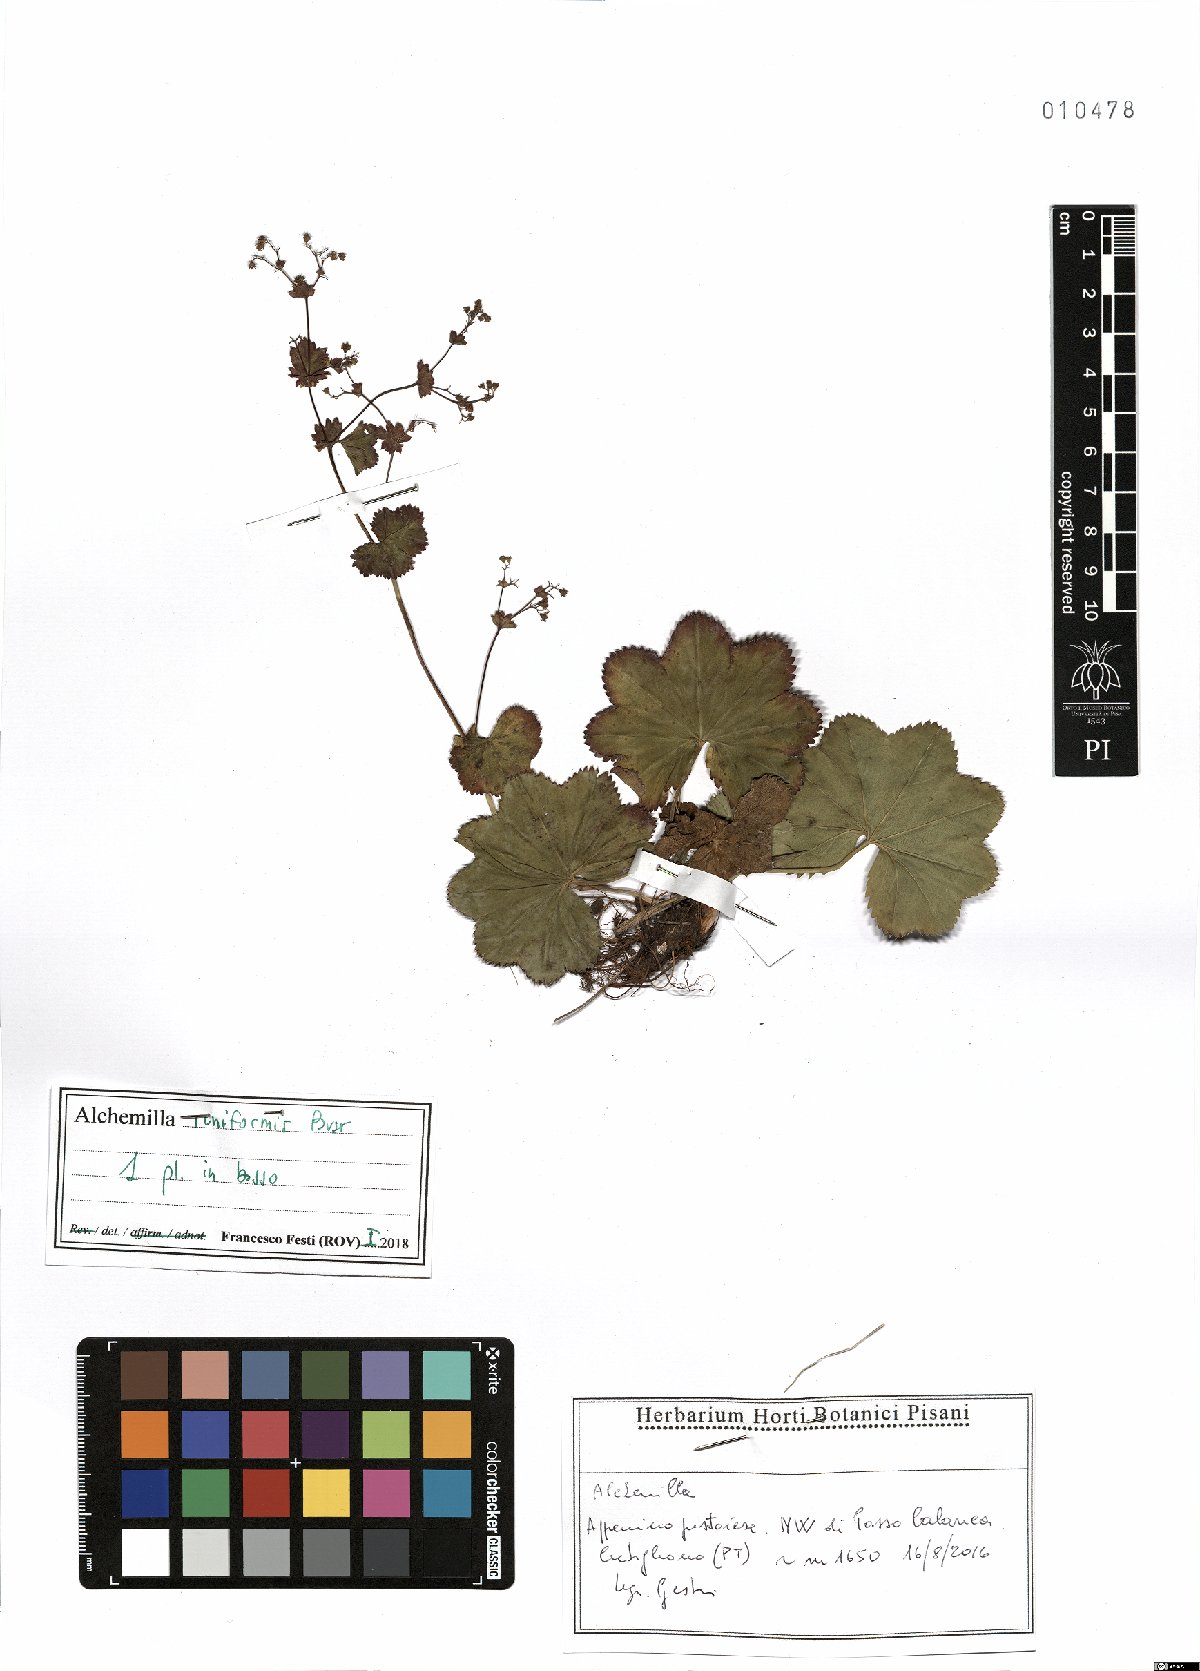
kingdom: Plantae
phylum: Tracheophyta
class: Magnoliopsida
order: Rosales
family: Rosaceae
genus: Alchemilla
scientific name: Alchemilla reniformis
